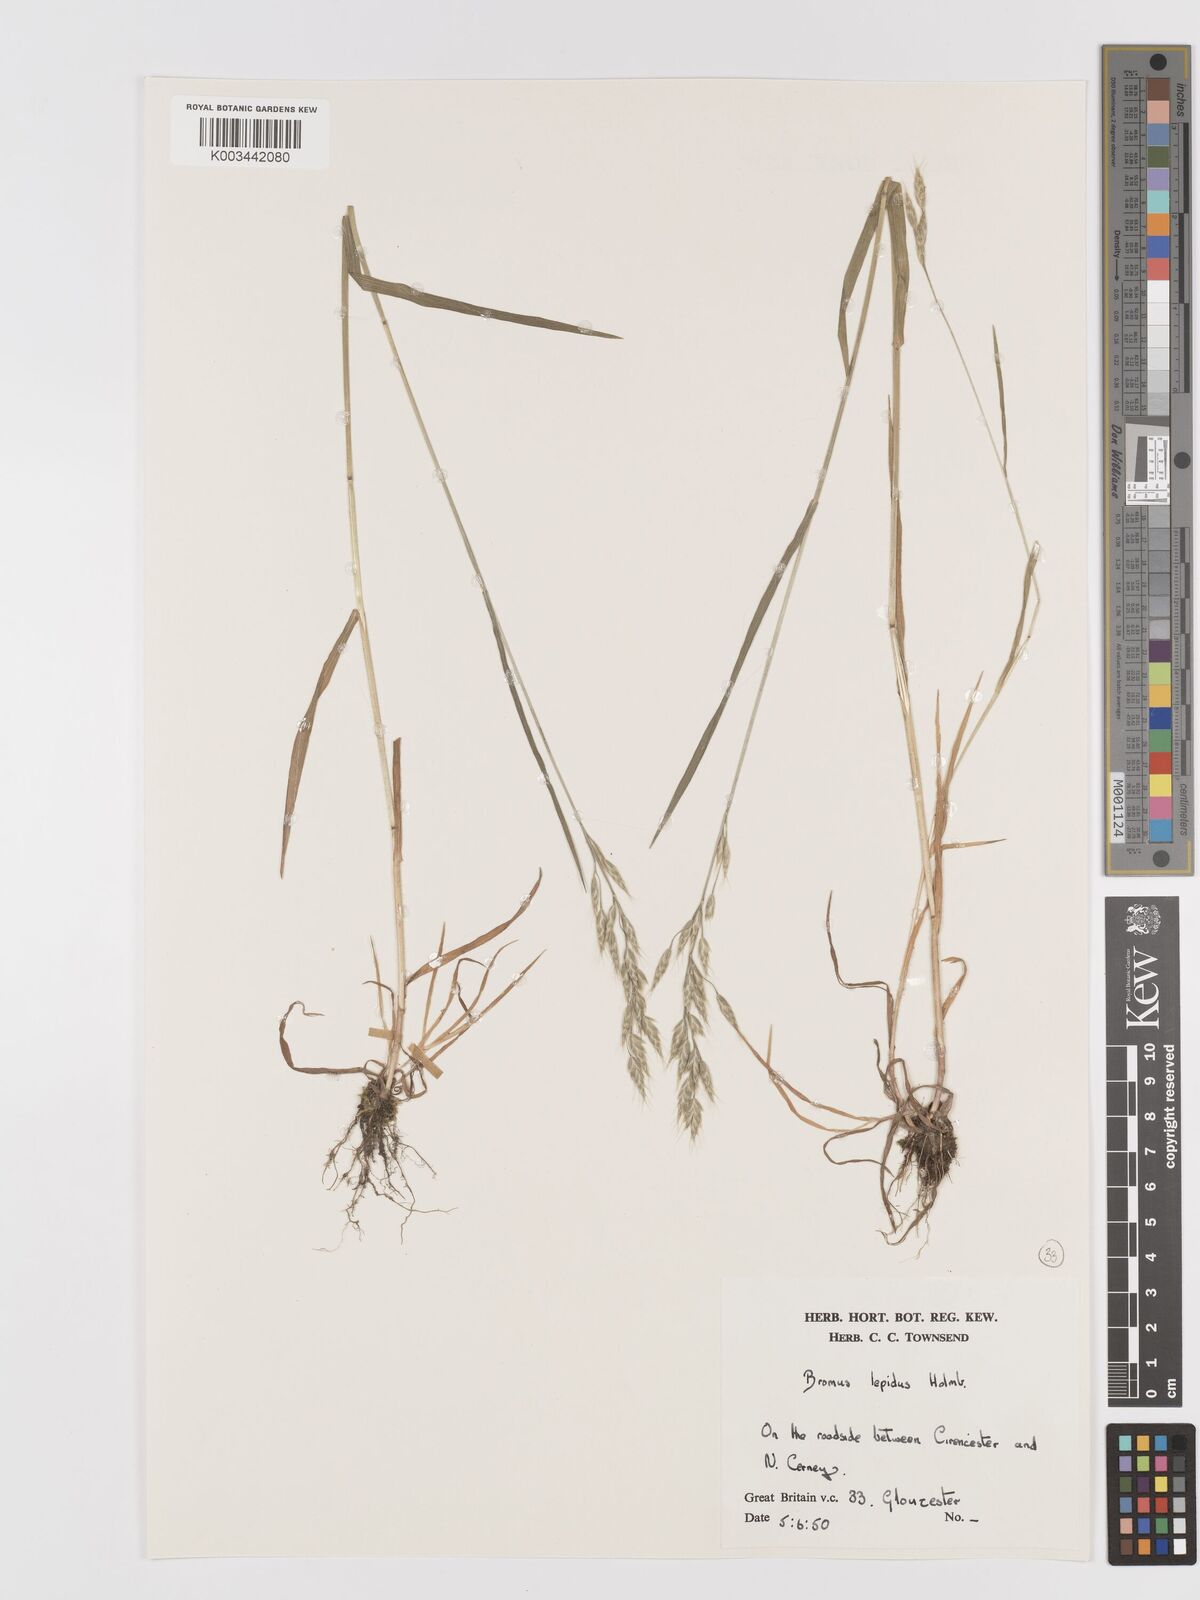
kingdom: Plantae
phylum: Tracheophyta
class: Liliopsida
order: Poales
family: Poaceae
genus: Bromus
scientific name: Bromus lepidus
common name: Slender soft-brome
